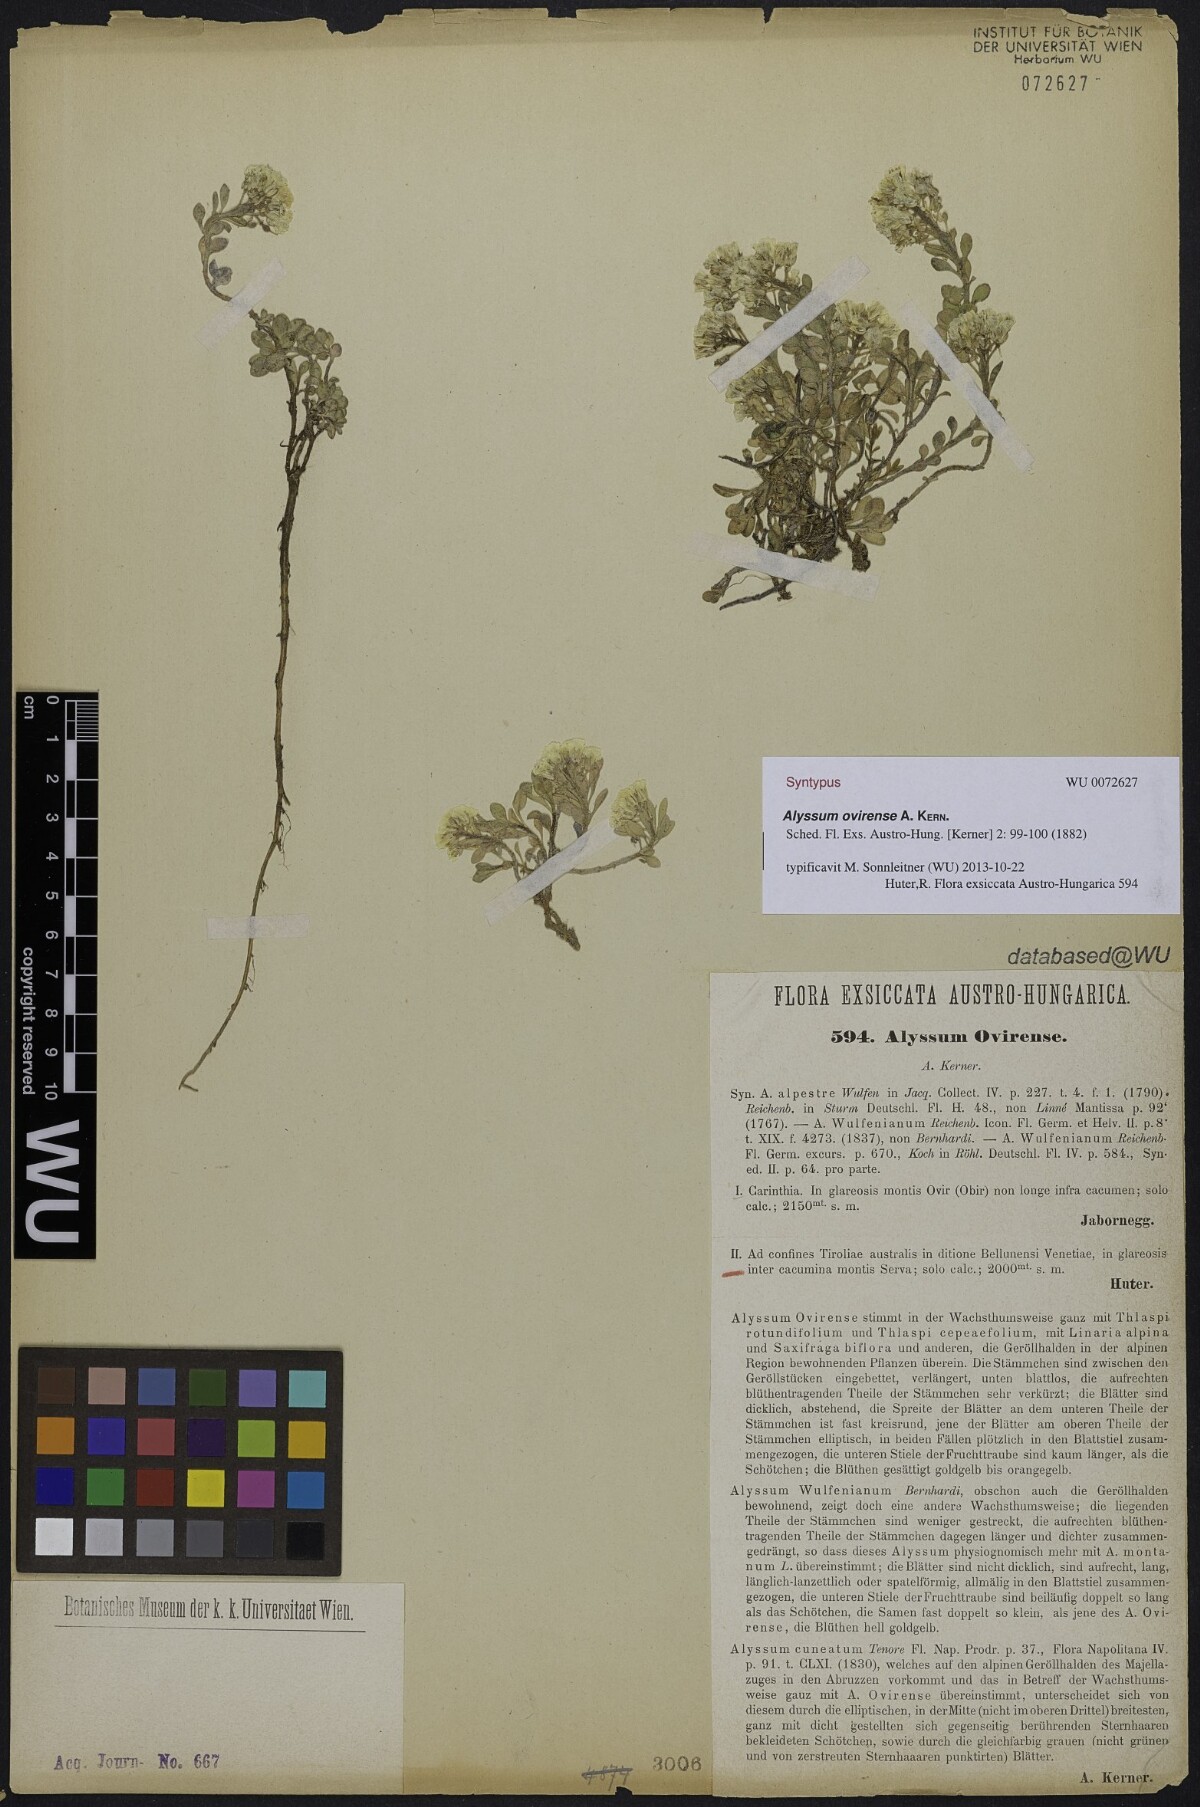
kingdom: Plantae
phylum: Tracheophyta
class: Magnoliopsida
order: Brassicales
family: Brassicaceae
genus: Alyssum
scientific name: Alyssum wulfenianum
